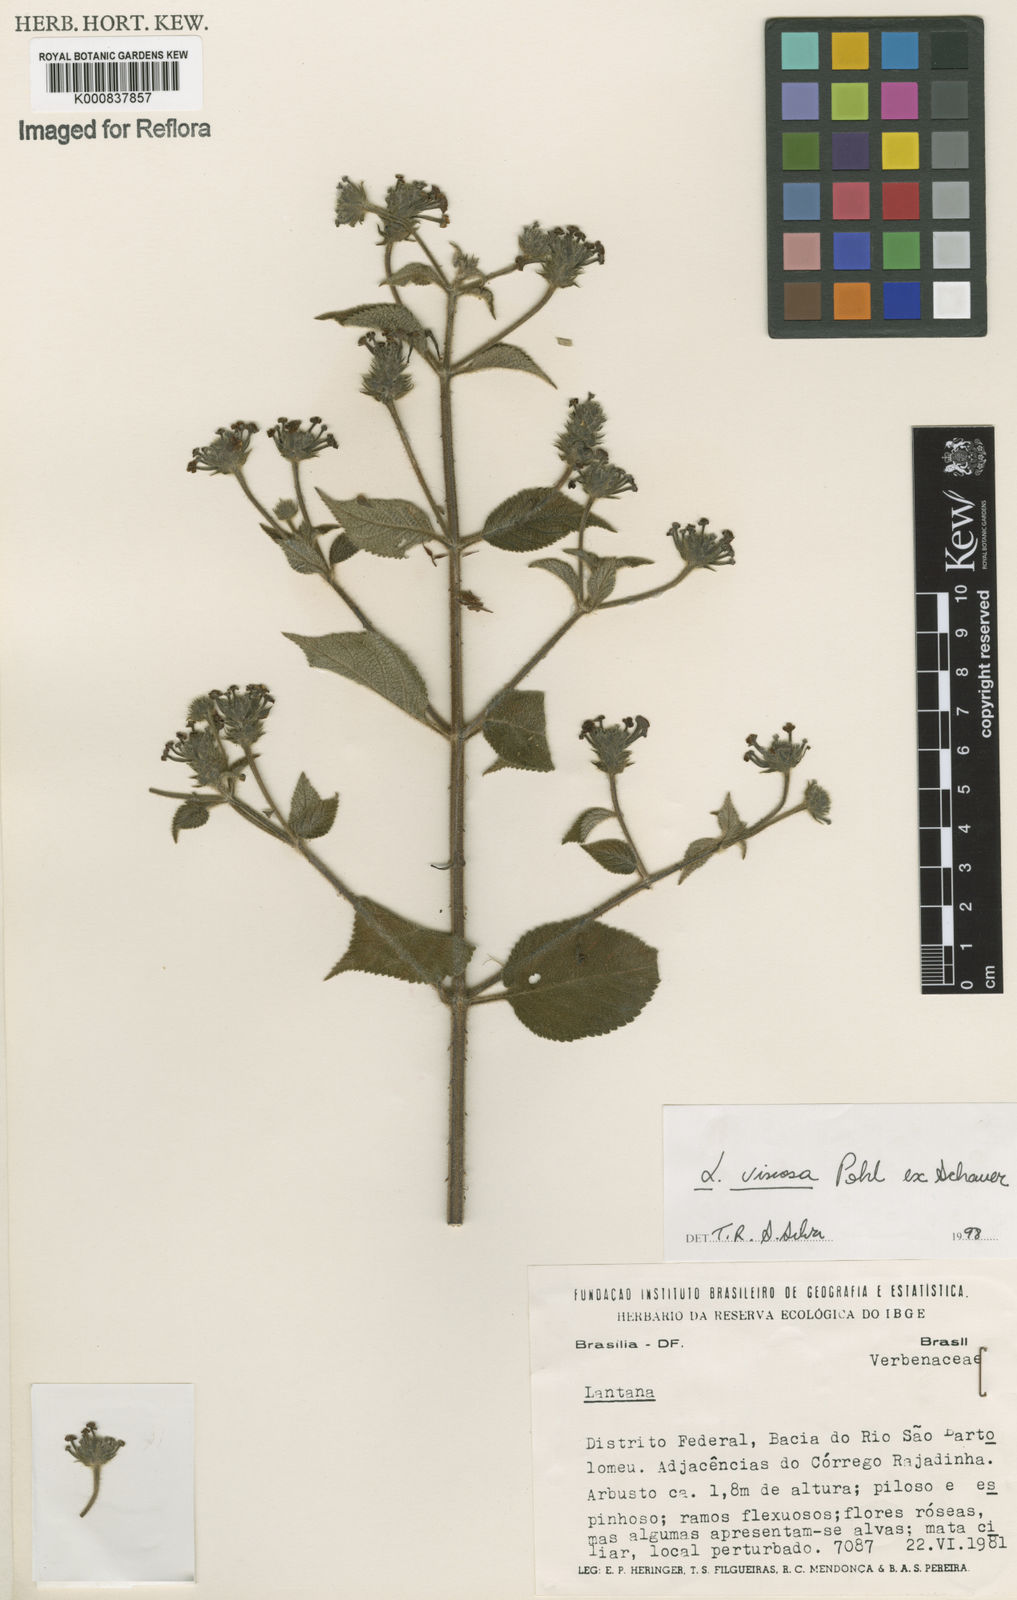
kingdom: Plantae
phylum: Tracheophyta
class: Magnoliopsida
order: Lamiales
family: Verbenaceae
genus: Lantana
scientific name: Lantana viscosa
